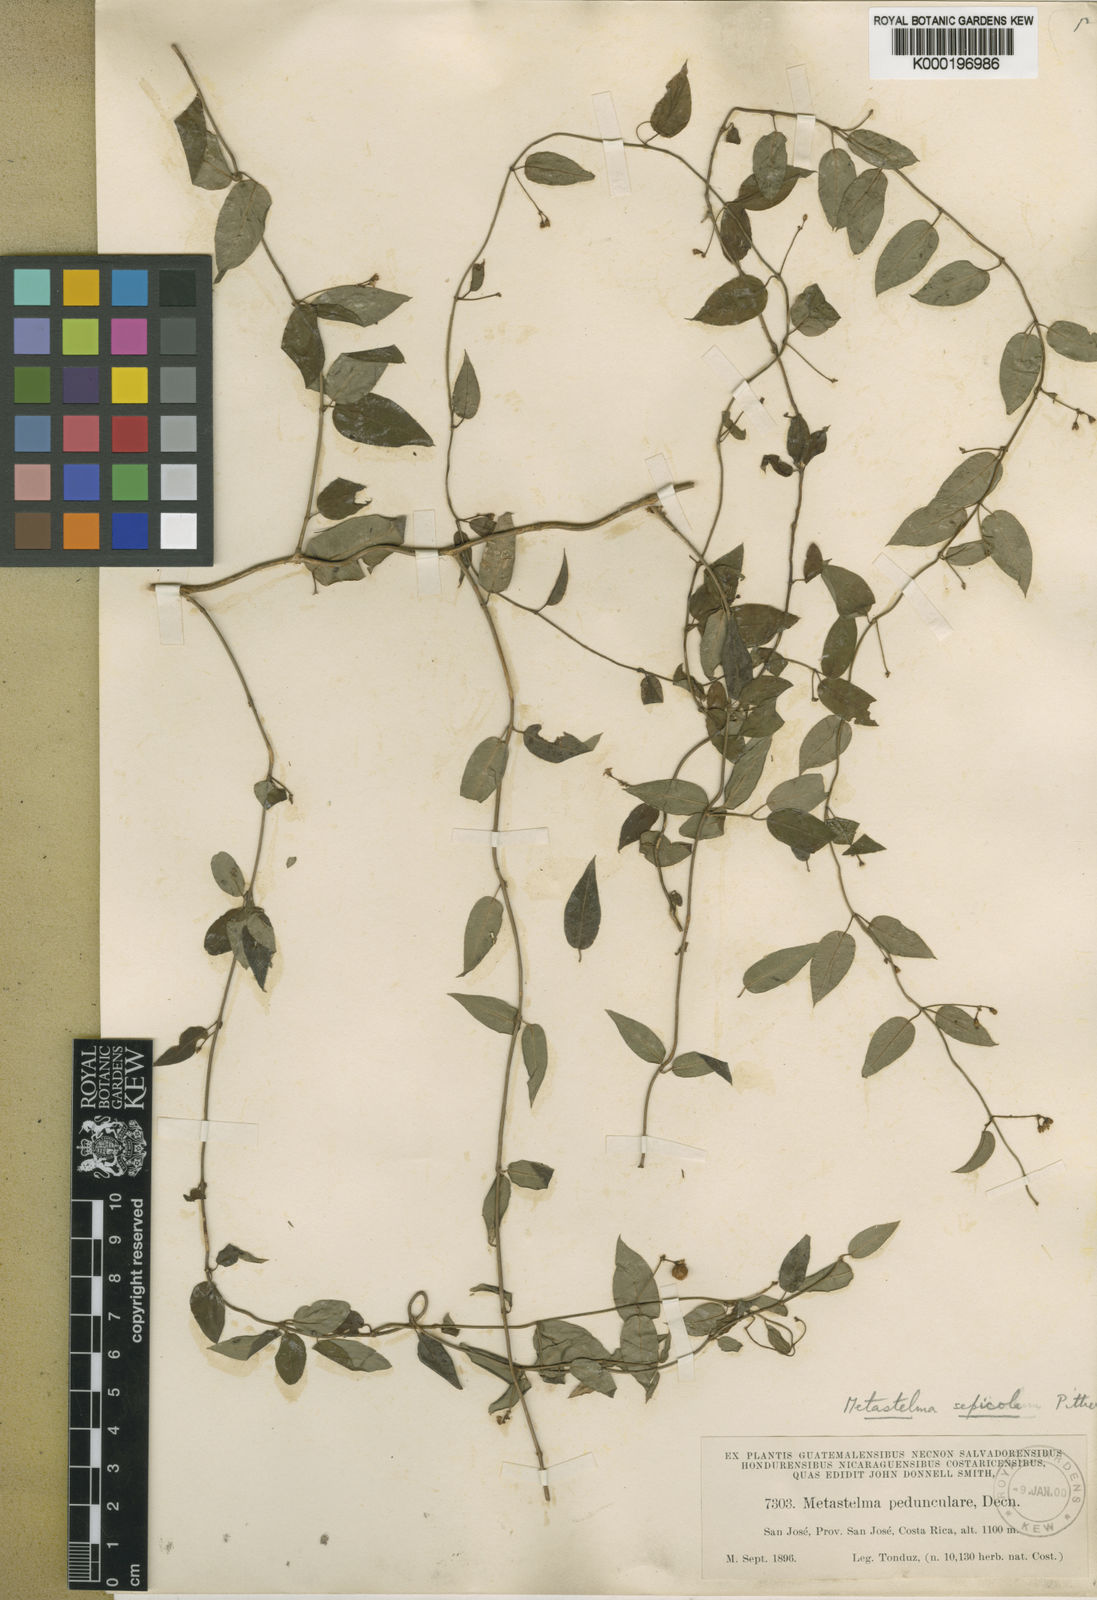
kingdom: Plantae
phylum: Tracheophyta
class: Magnoliopsida
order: Gentianales
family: Apocynaceae
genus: Metastelma
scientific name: Metastelma pedunculare
